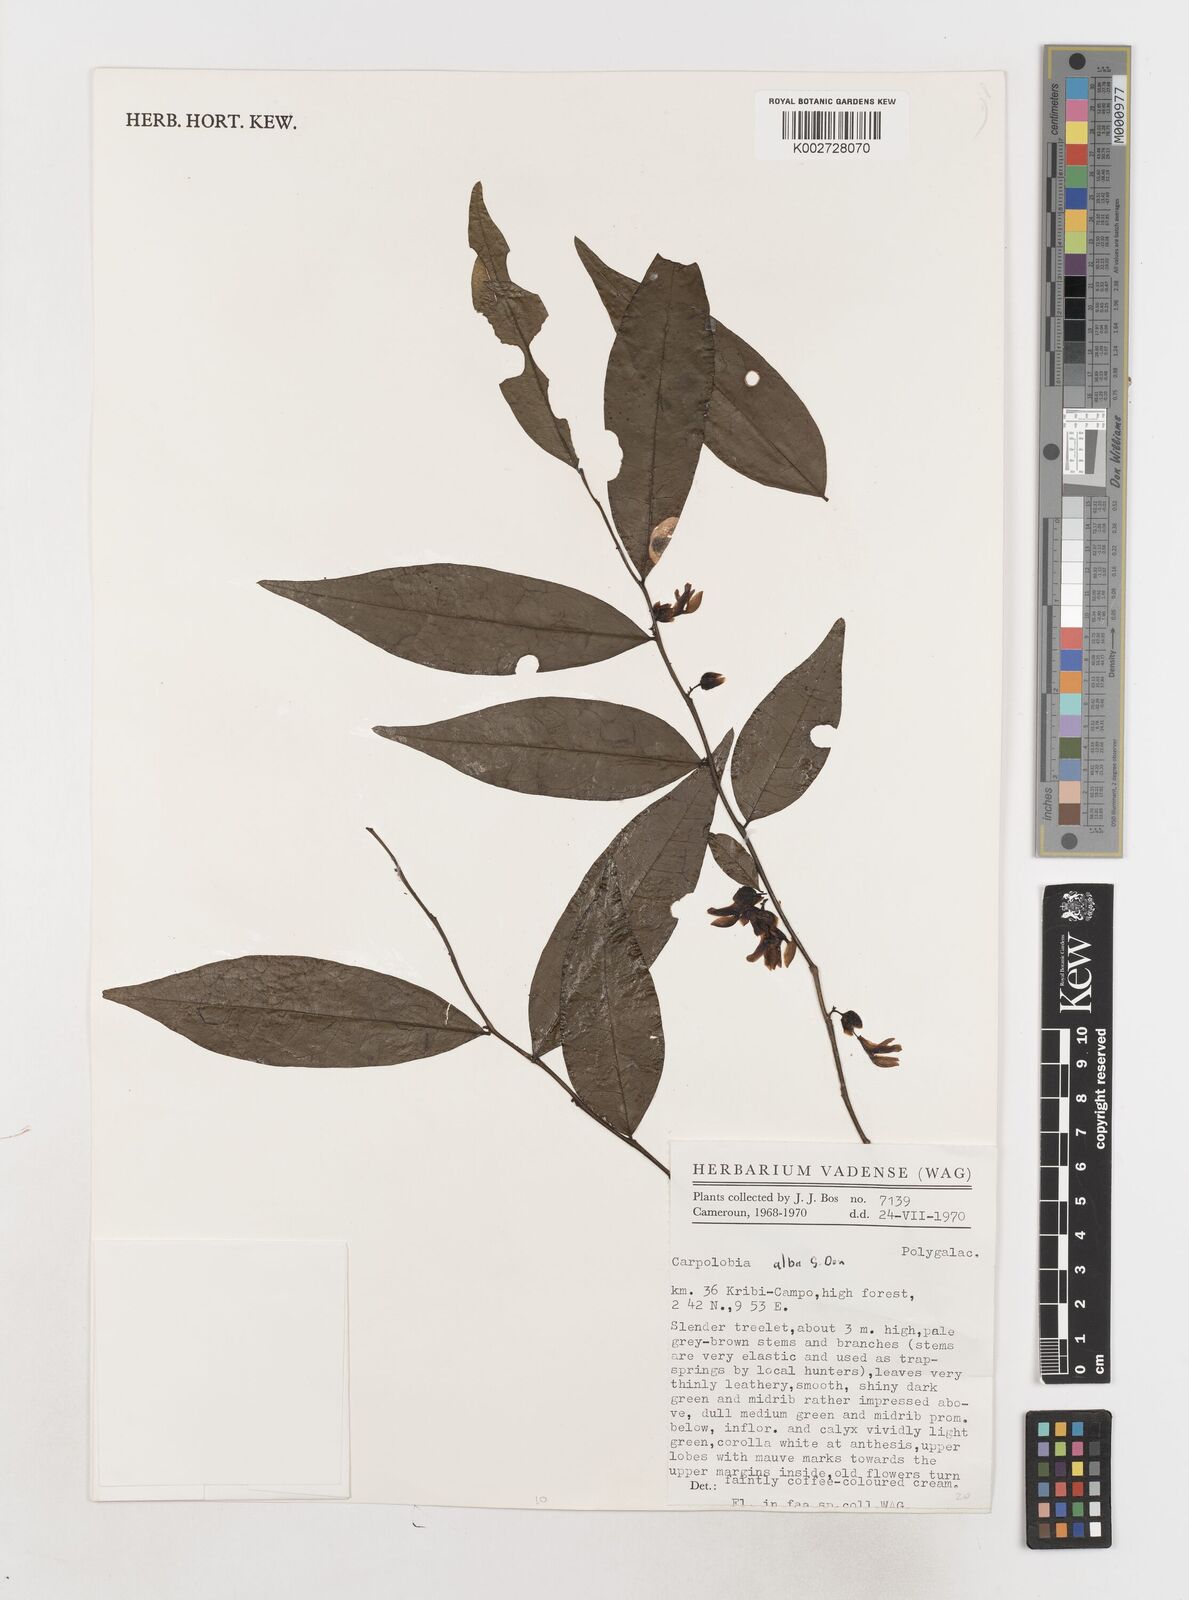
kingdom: Plantae
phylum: Tracheophyta
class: Magnoliopsida
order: Fabales
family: Polygalaceae
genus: Carpolobia
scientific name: Carpolobia alba
